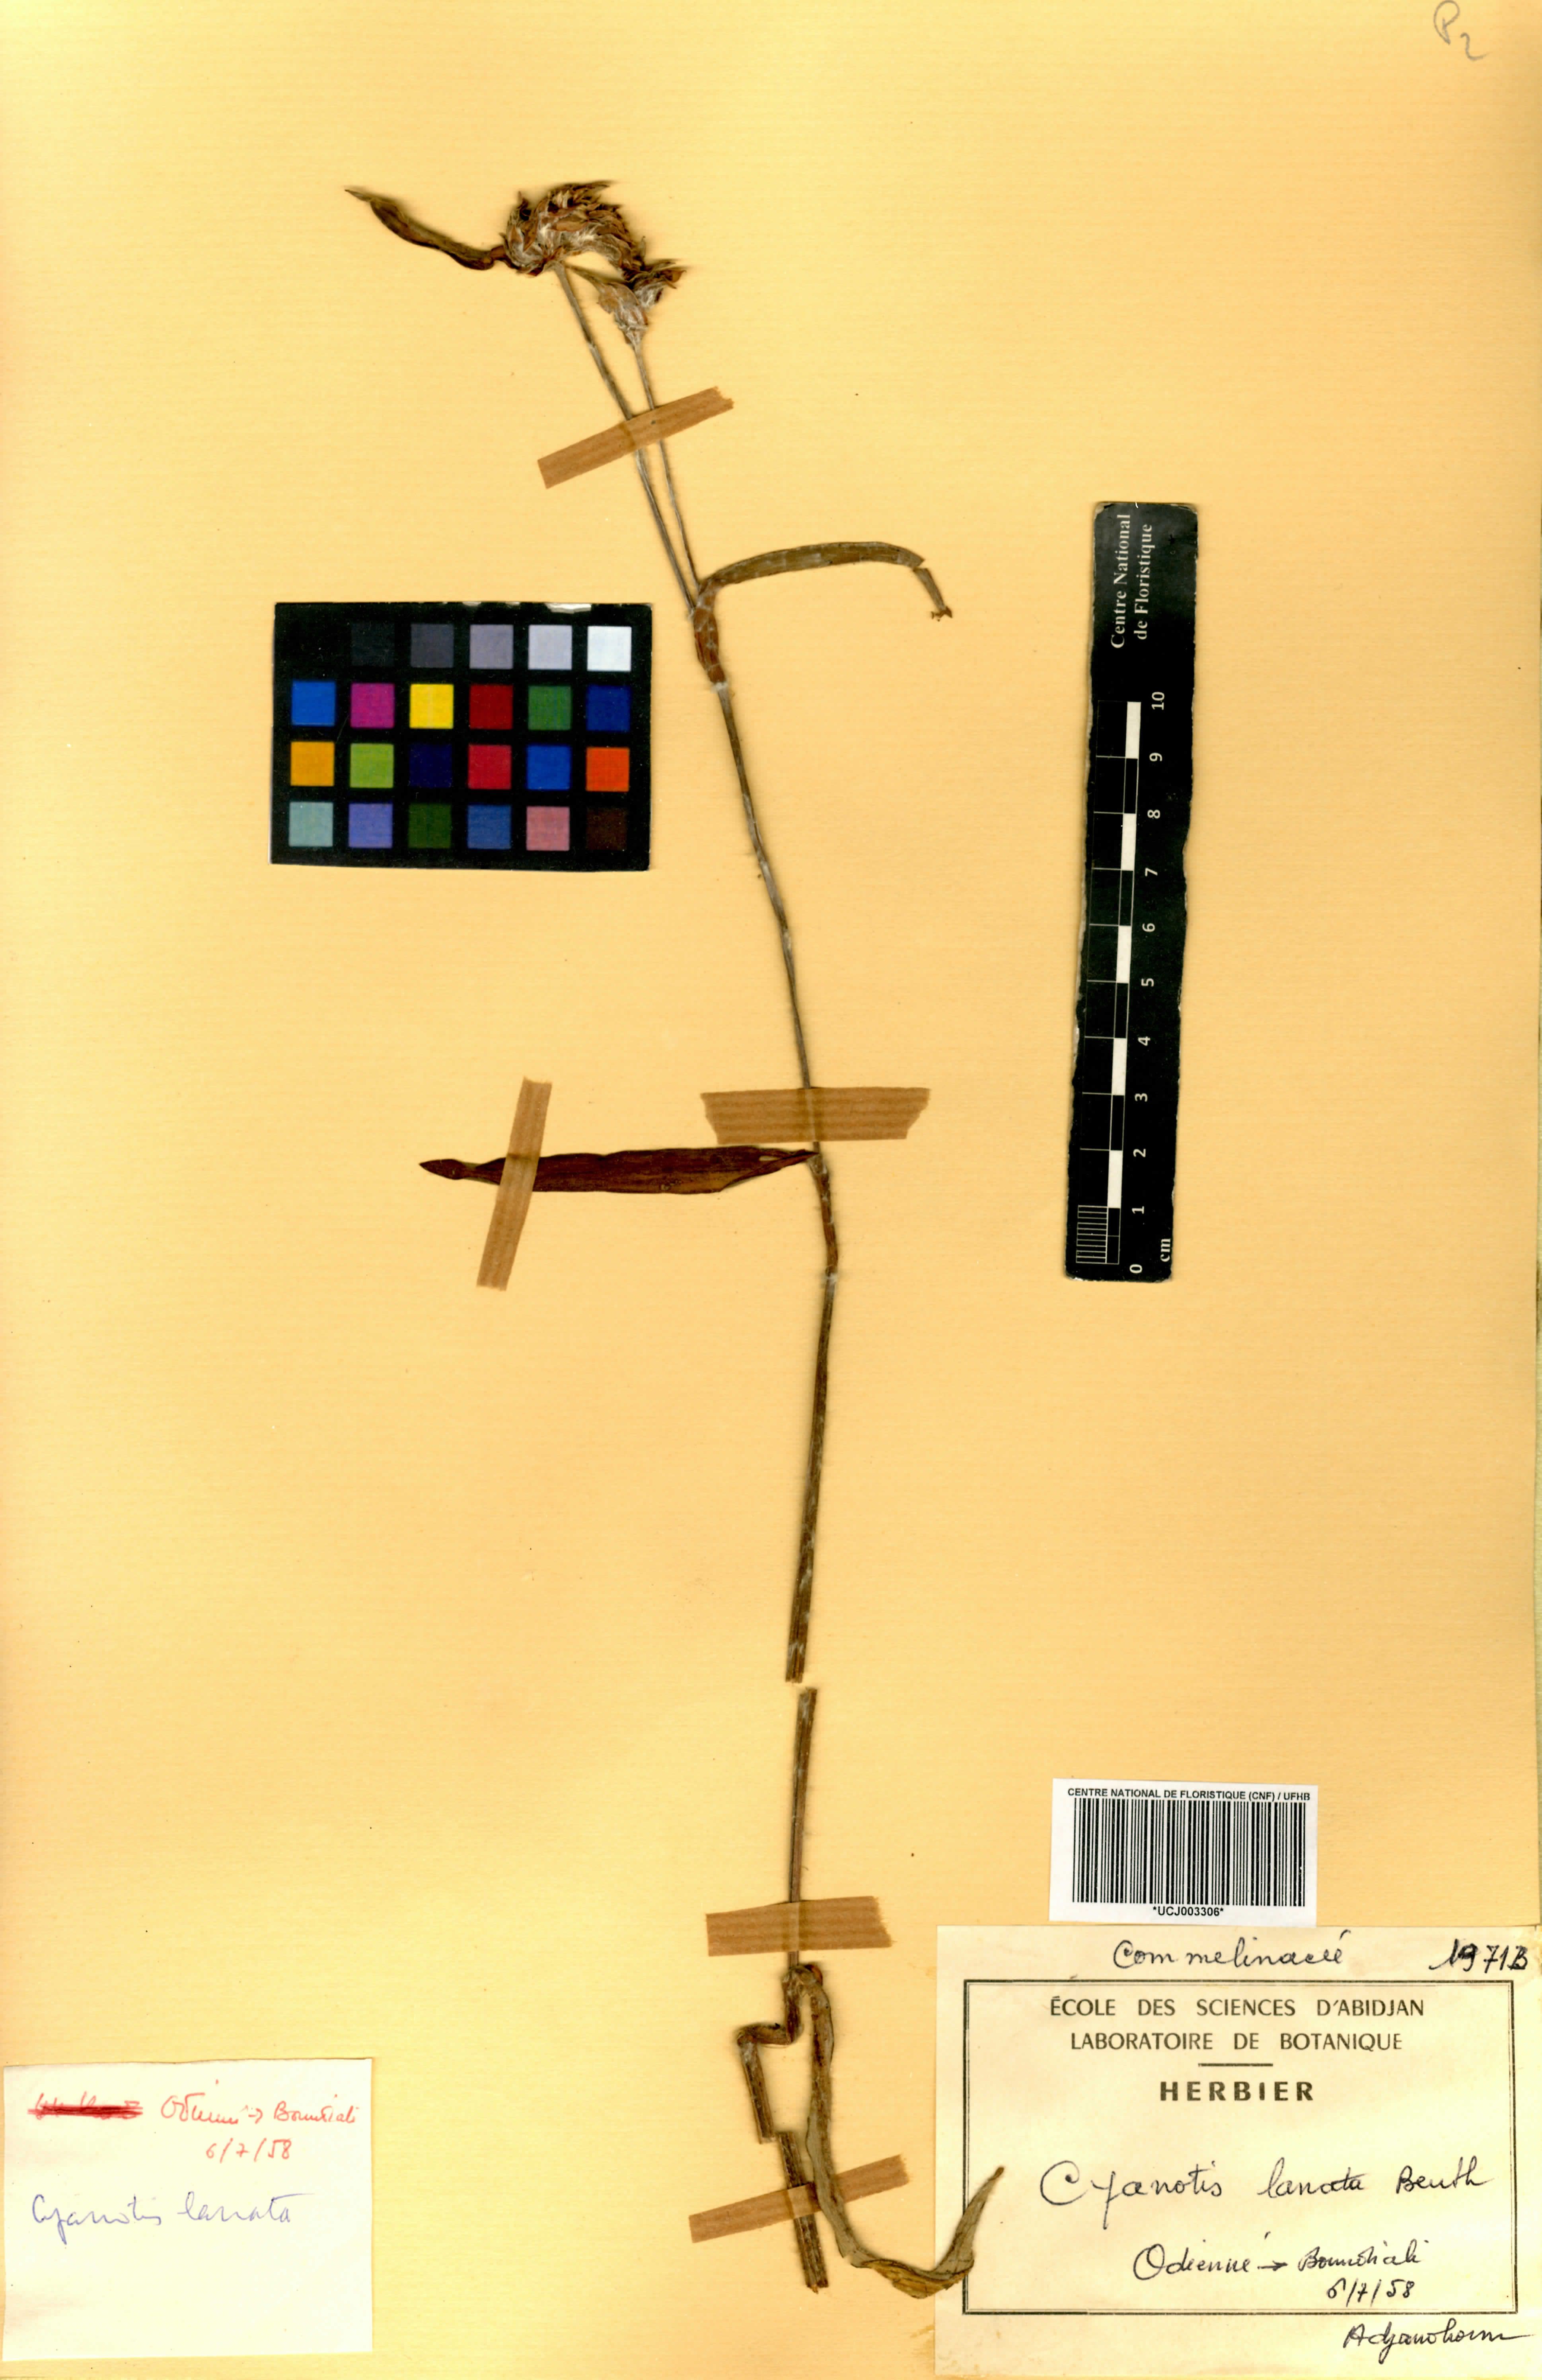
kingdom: Plantae
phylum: Tracheophyta
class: Liliopsida
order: Commelinales
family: Commelinaceae
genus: Cyanotis
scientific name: Cyanotis lanata
